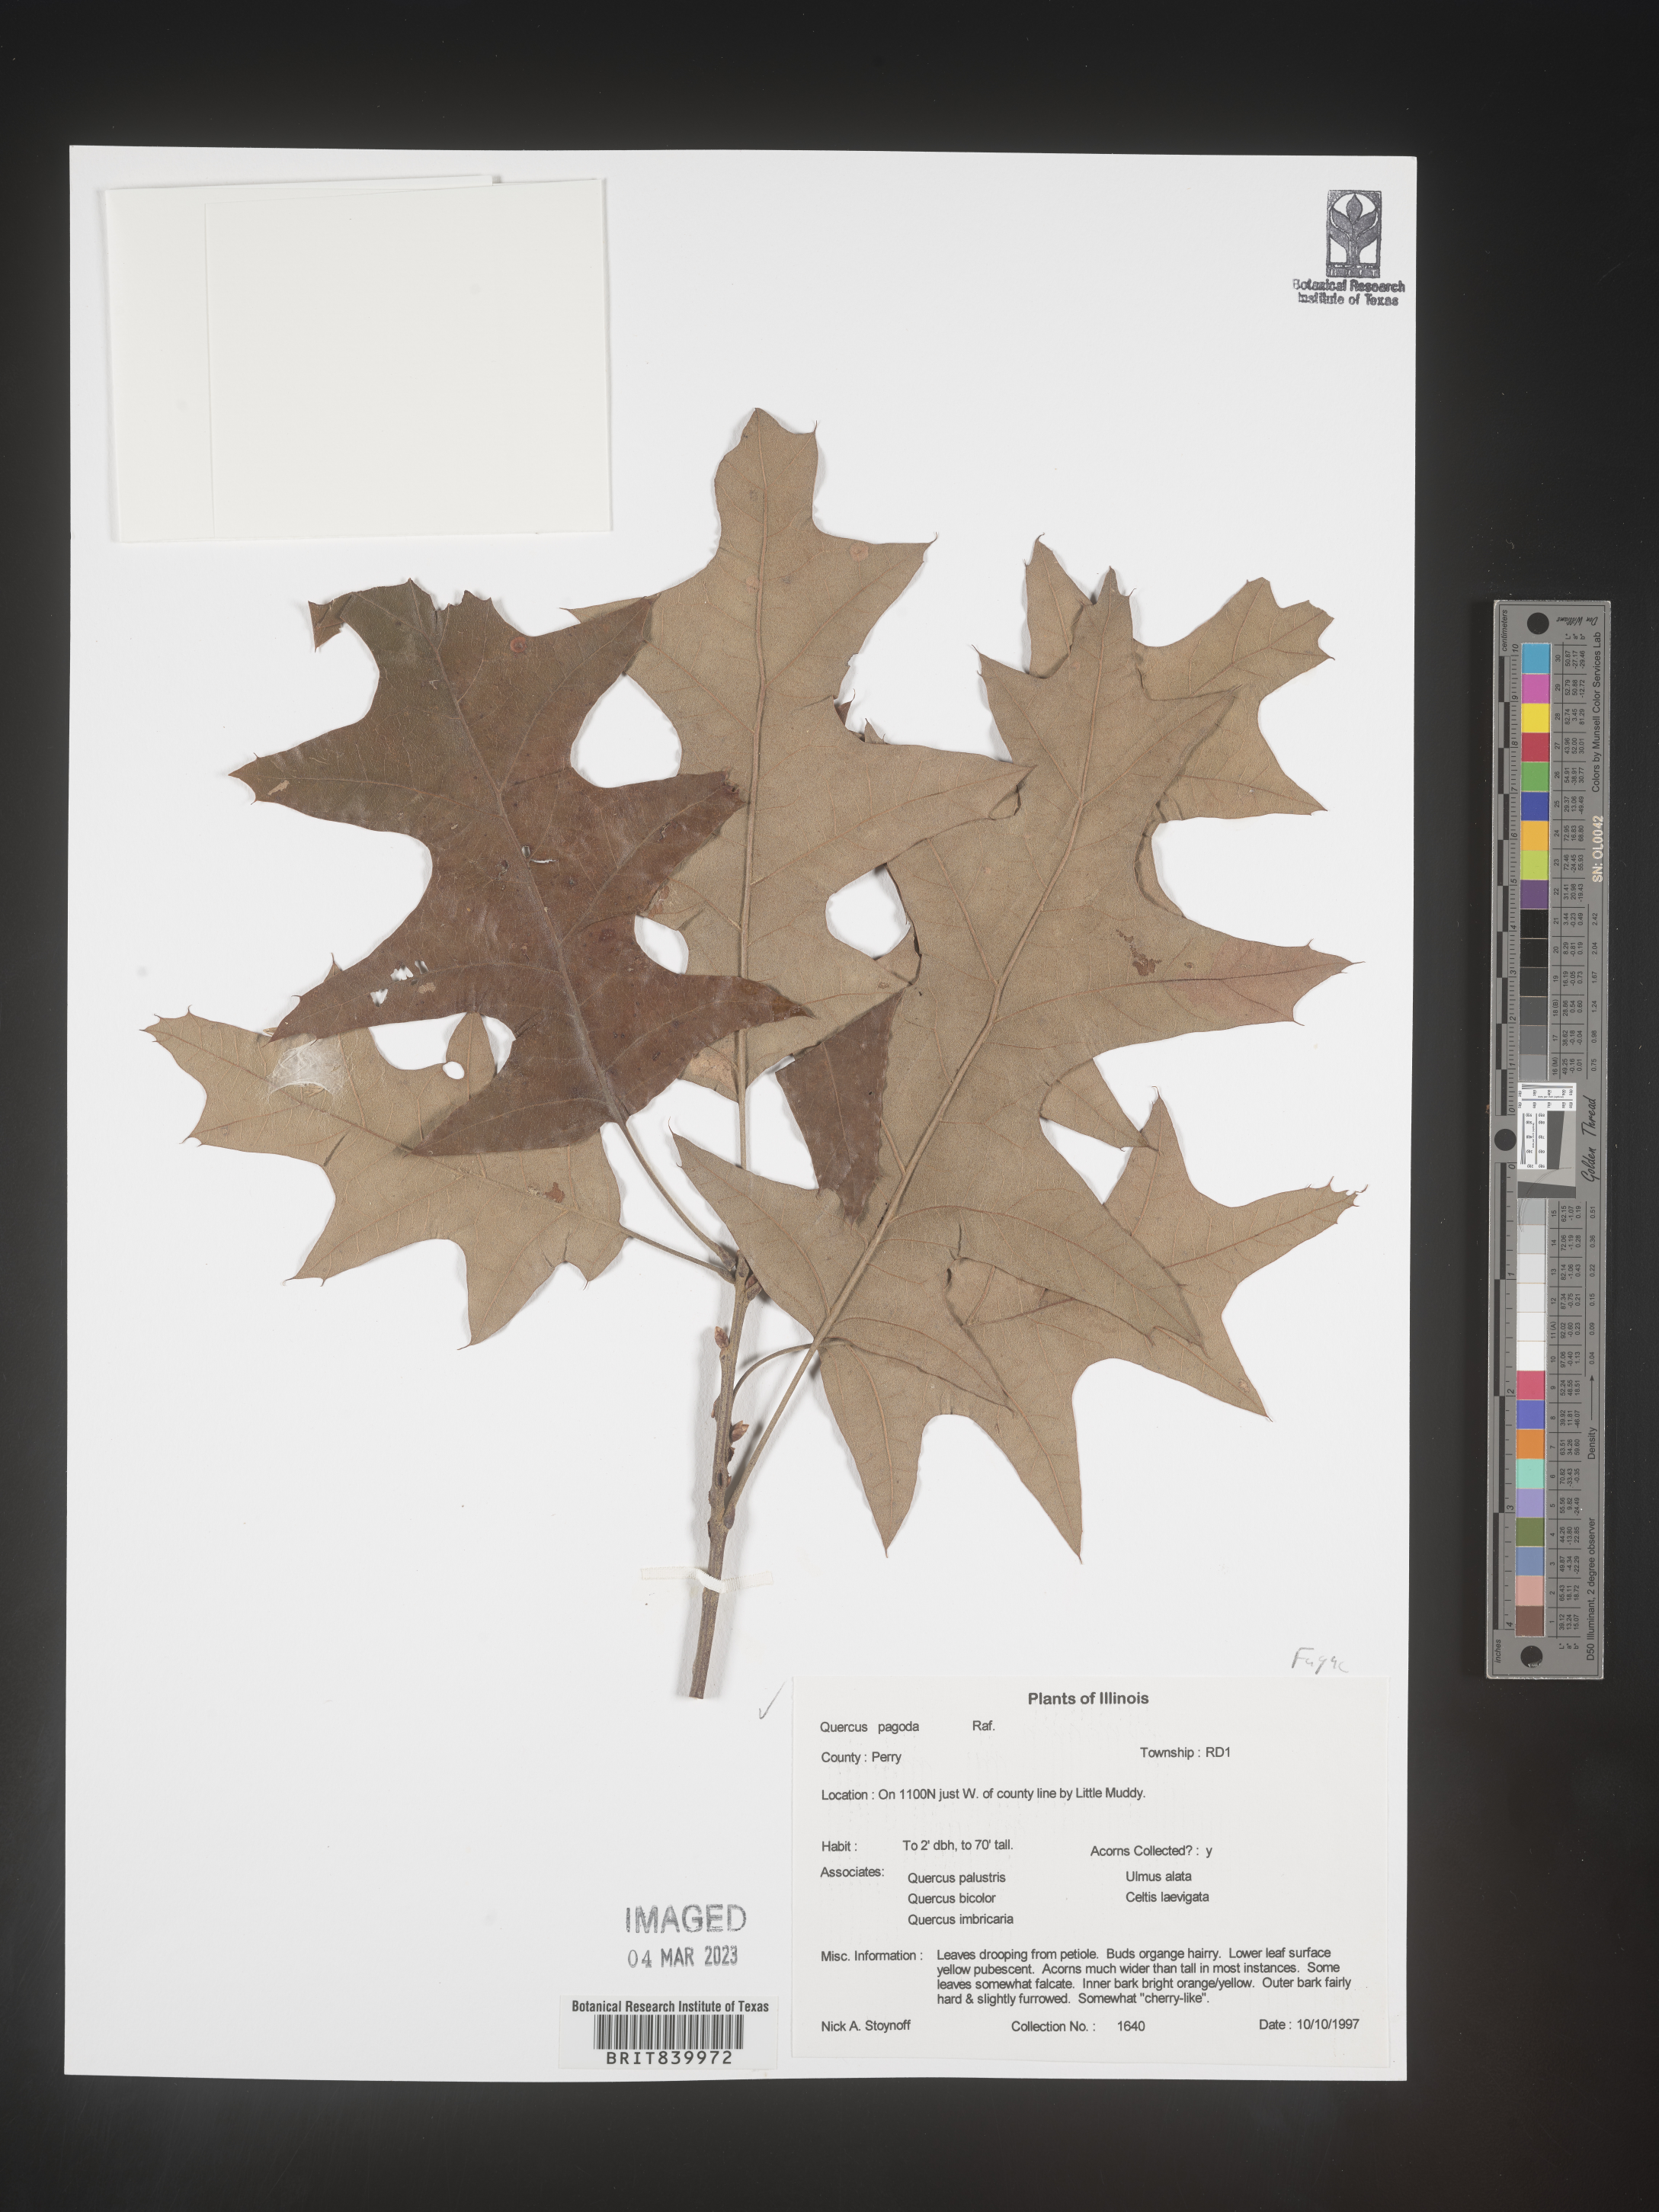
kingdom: Plantae
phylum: Tracheophyta
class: Magnoliopsida
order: Fagales
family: Fagaceae
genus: Quercus
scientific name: Quercus pagoda
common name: Cherrybark oak
